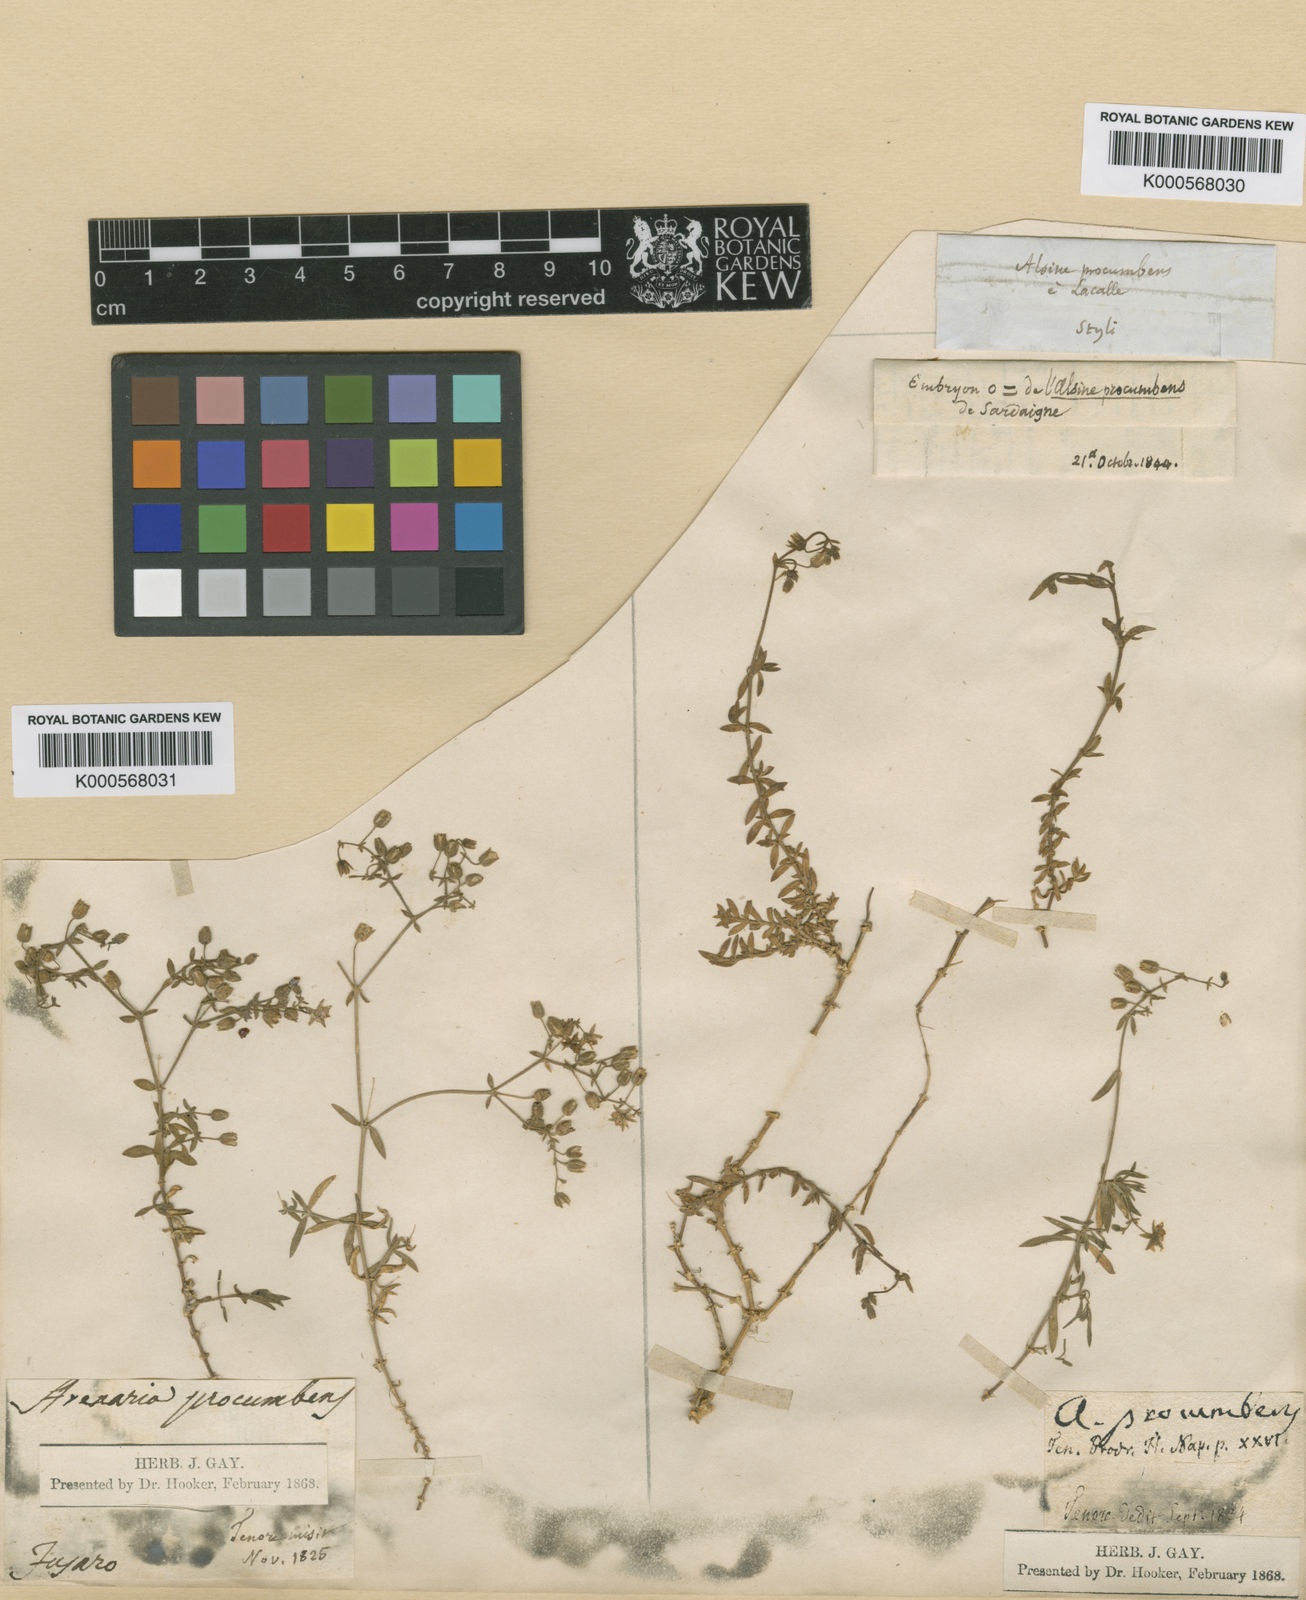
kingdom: Plantae
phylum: Tracheophyta
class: Magnoliopsida
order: Caryophyllales
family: Caryophyllaceae
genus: Rhodalsine
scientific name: Rhodalsine geniculata
